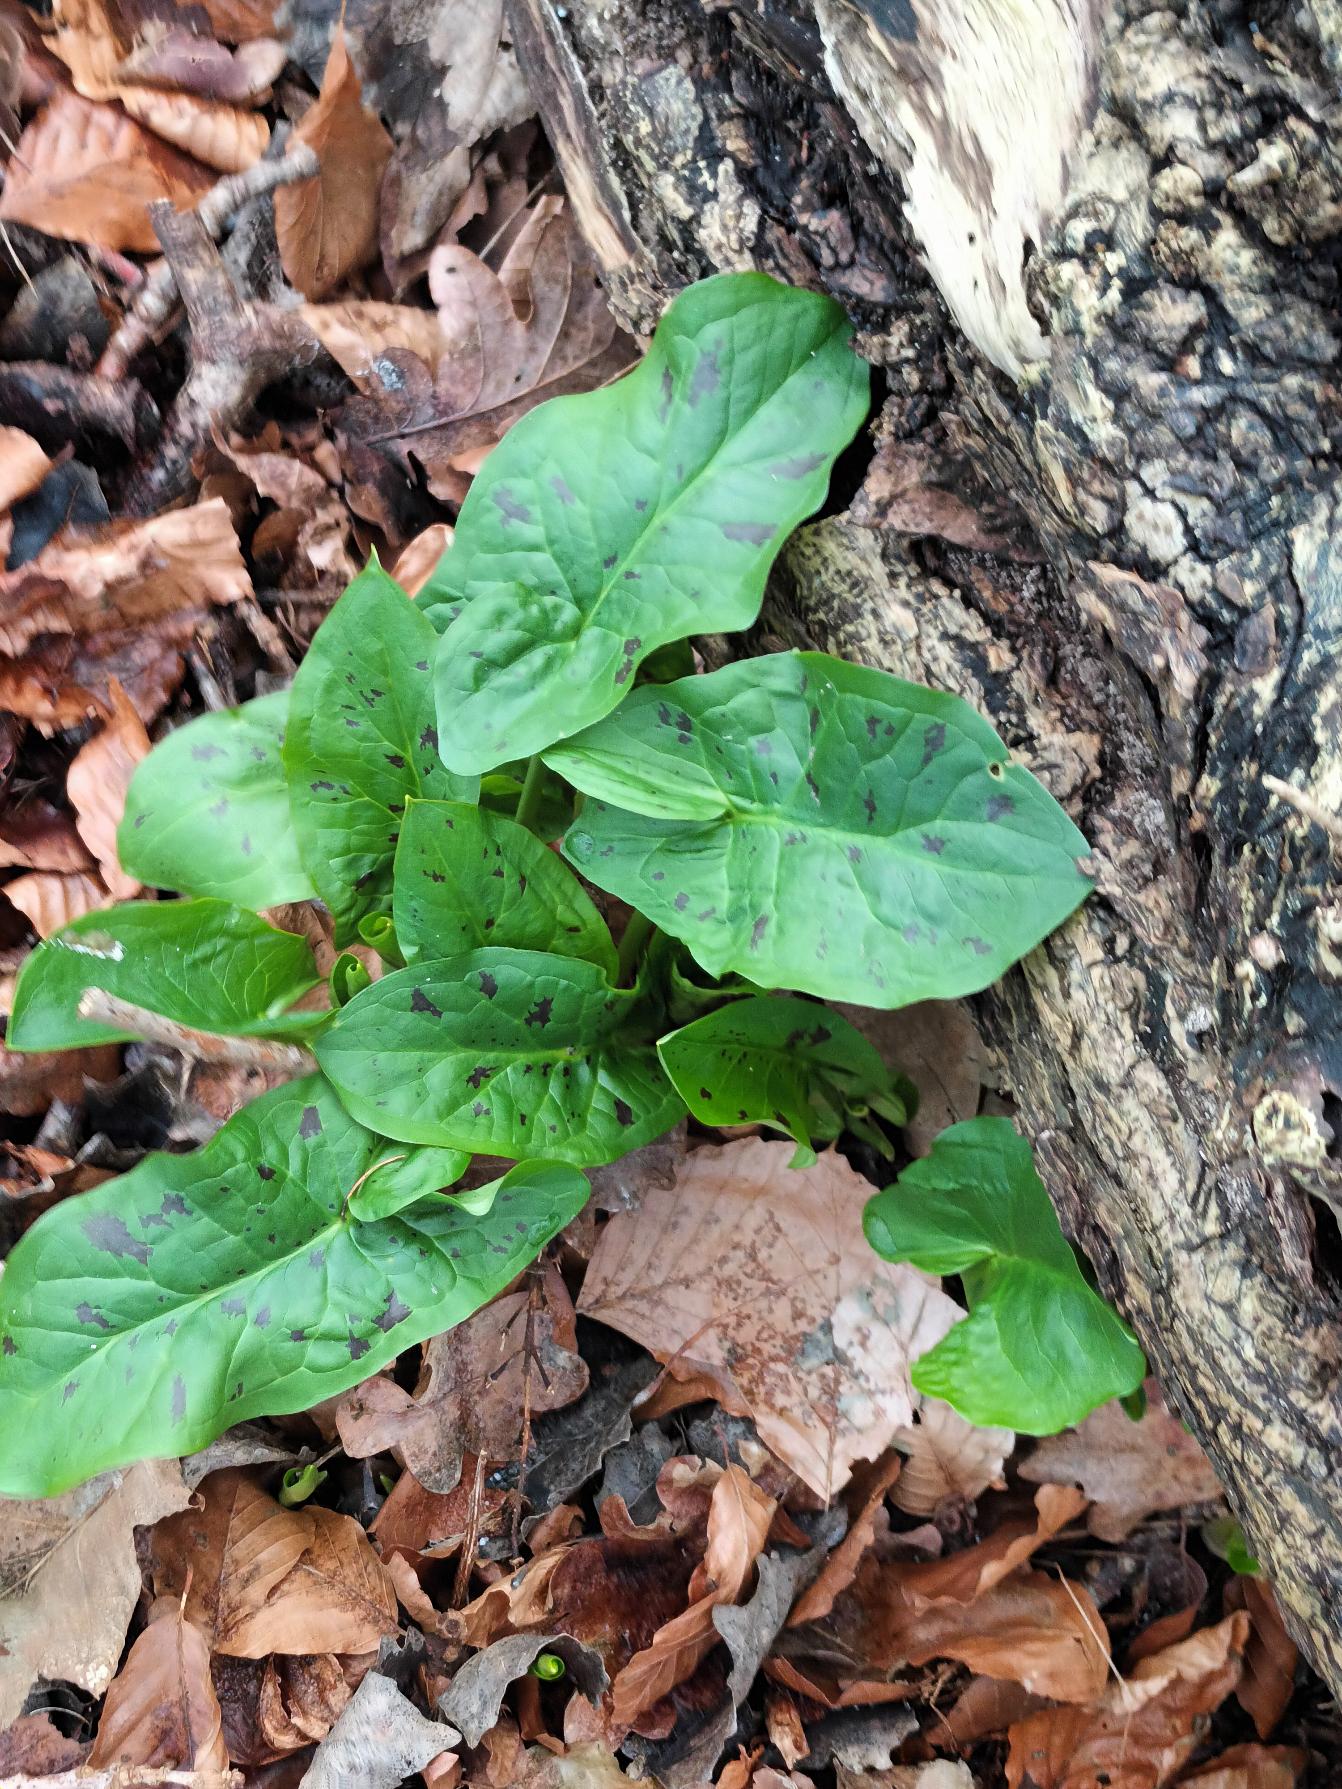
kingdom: Plantae
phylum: Tracheophyta
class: Liliopsida
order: Alismatales
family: Araceae
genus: Arum
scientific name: Arum maculatum
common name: Plettet arum
